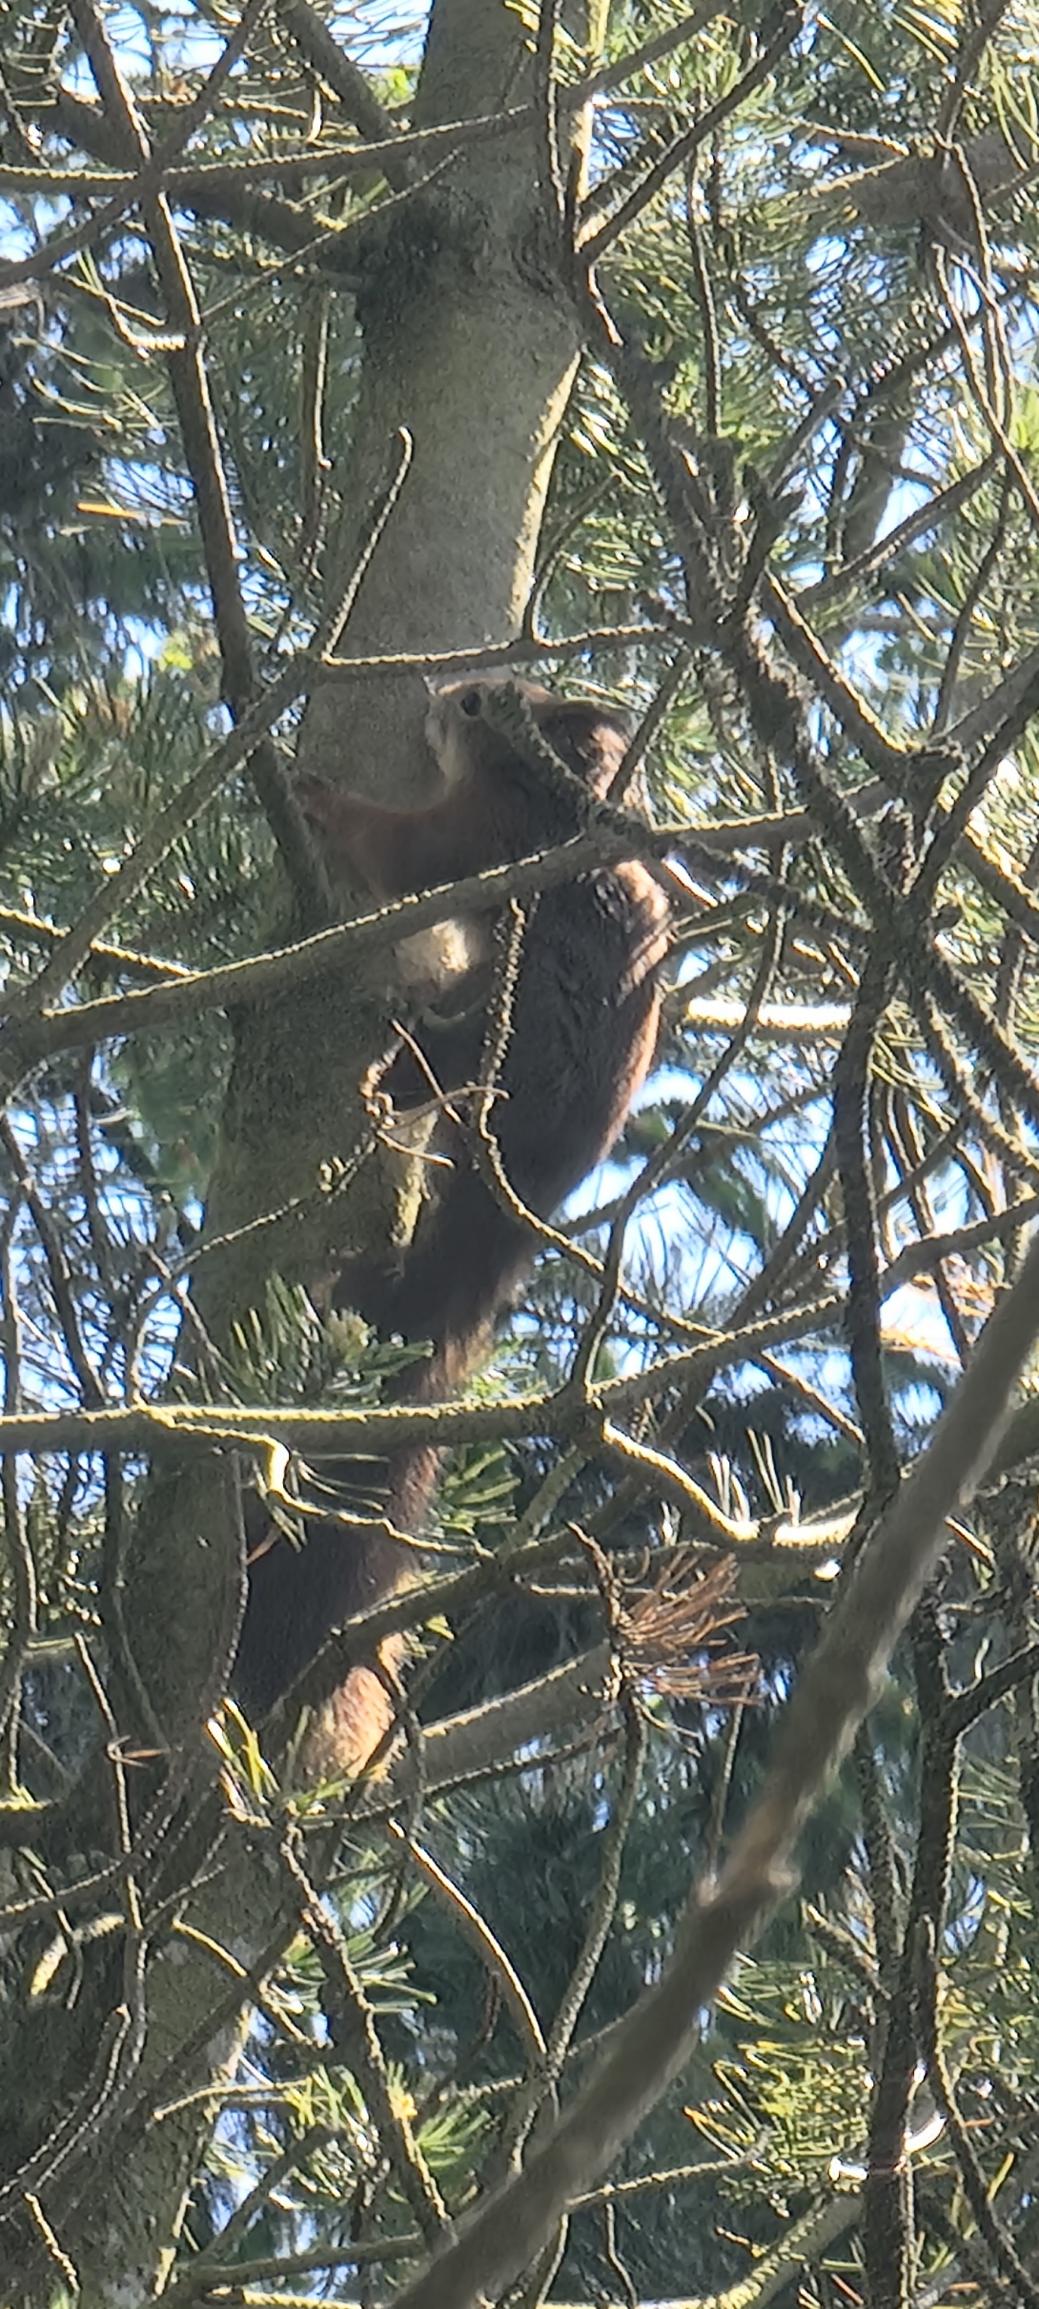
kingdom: Animalia
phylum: Chordata
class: Mammalia
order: Rodentia
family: Sciuridae
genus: Sciurus
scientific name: Sciurus vulgaris
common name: Egern
